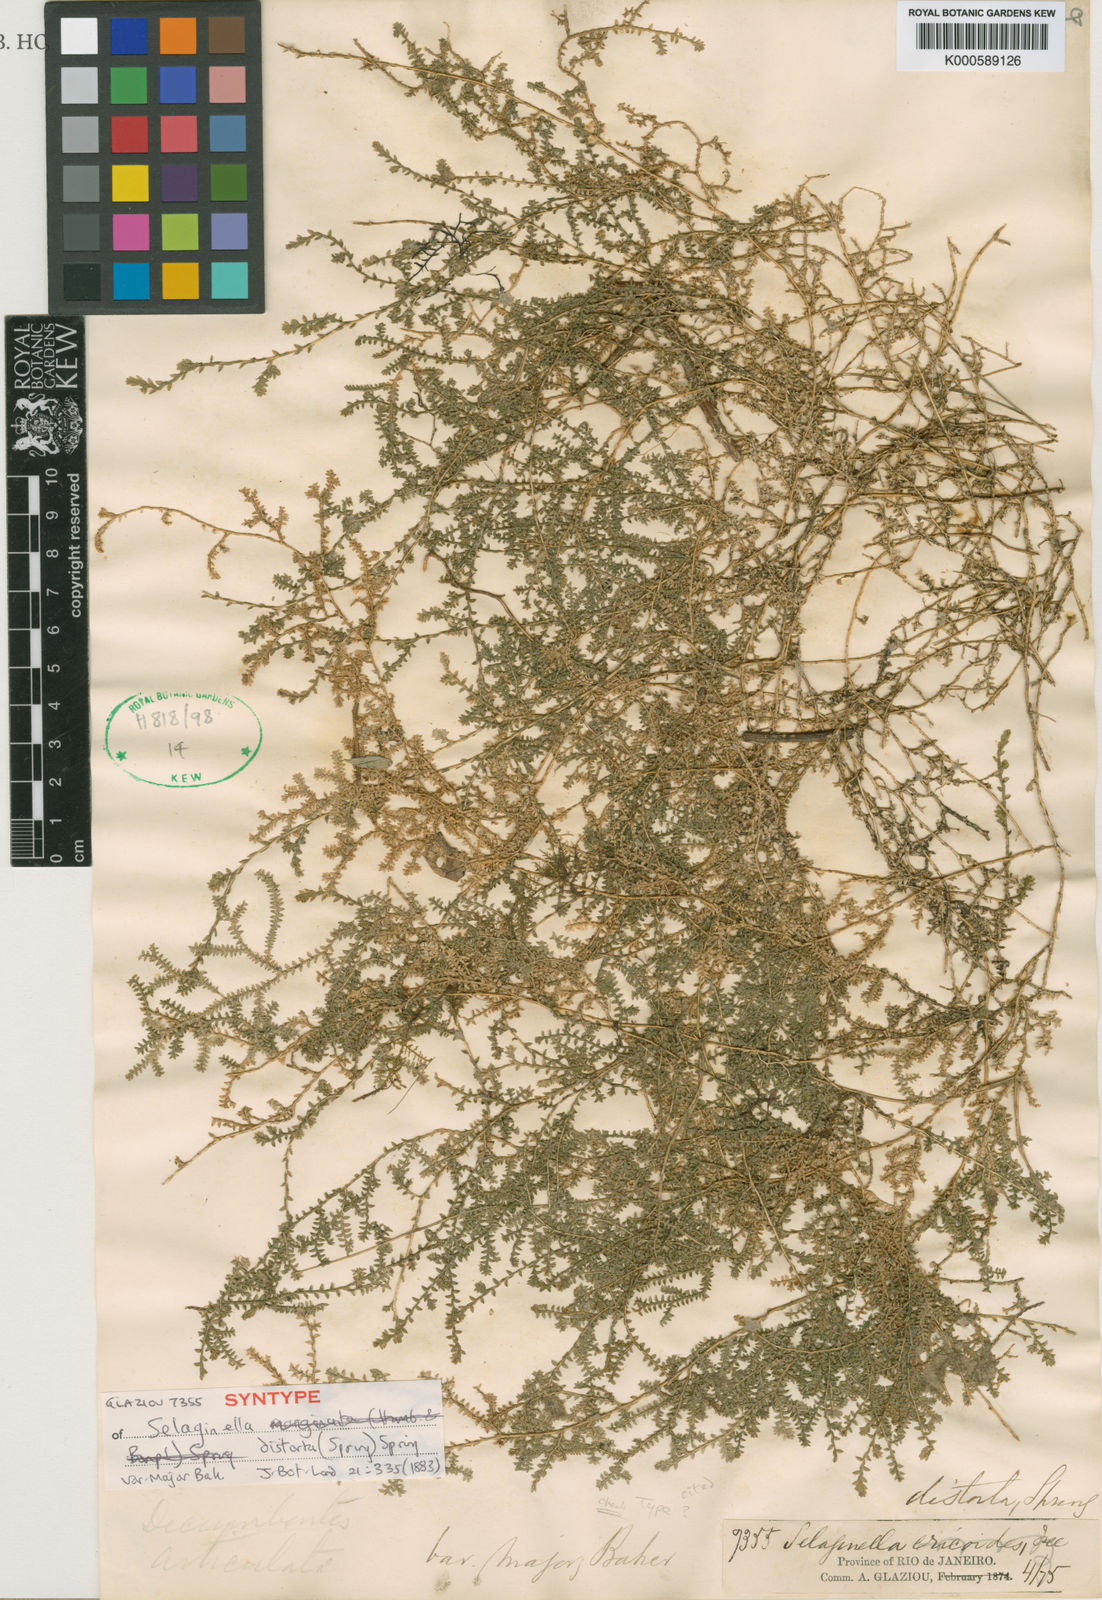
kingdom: Plantae
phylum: Tracheophyta
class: Lycopodiopsida
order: Selaginellales
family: Selaginellaceae
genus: Selaginella
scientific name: Selaginella marginata
